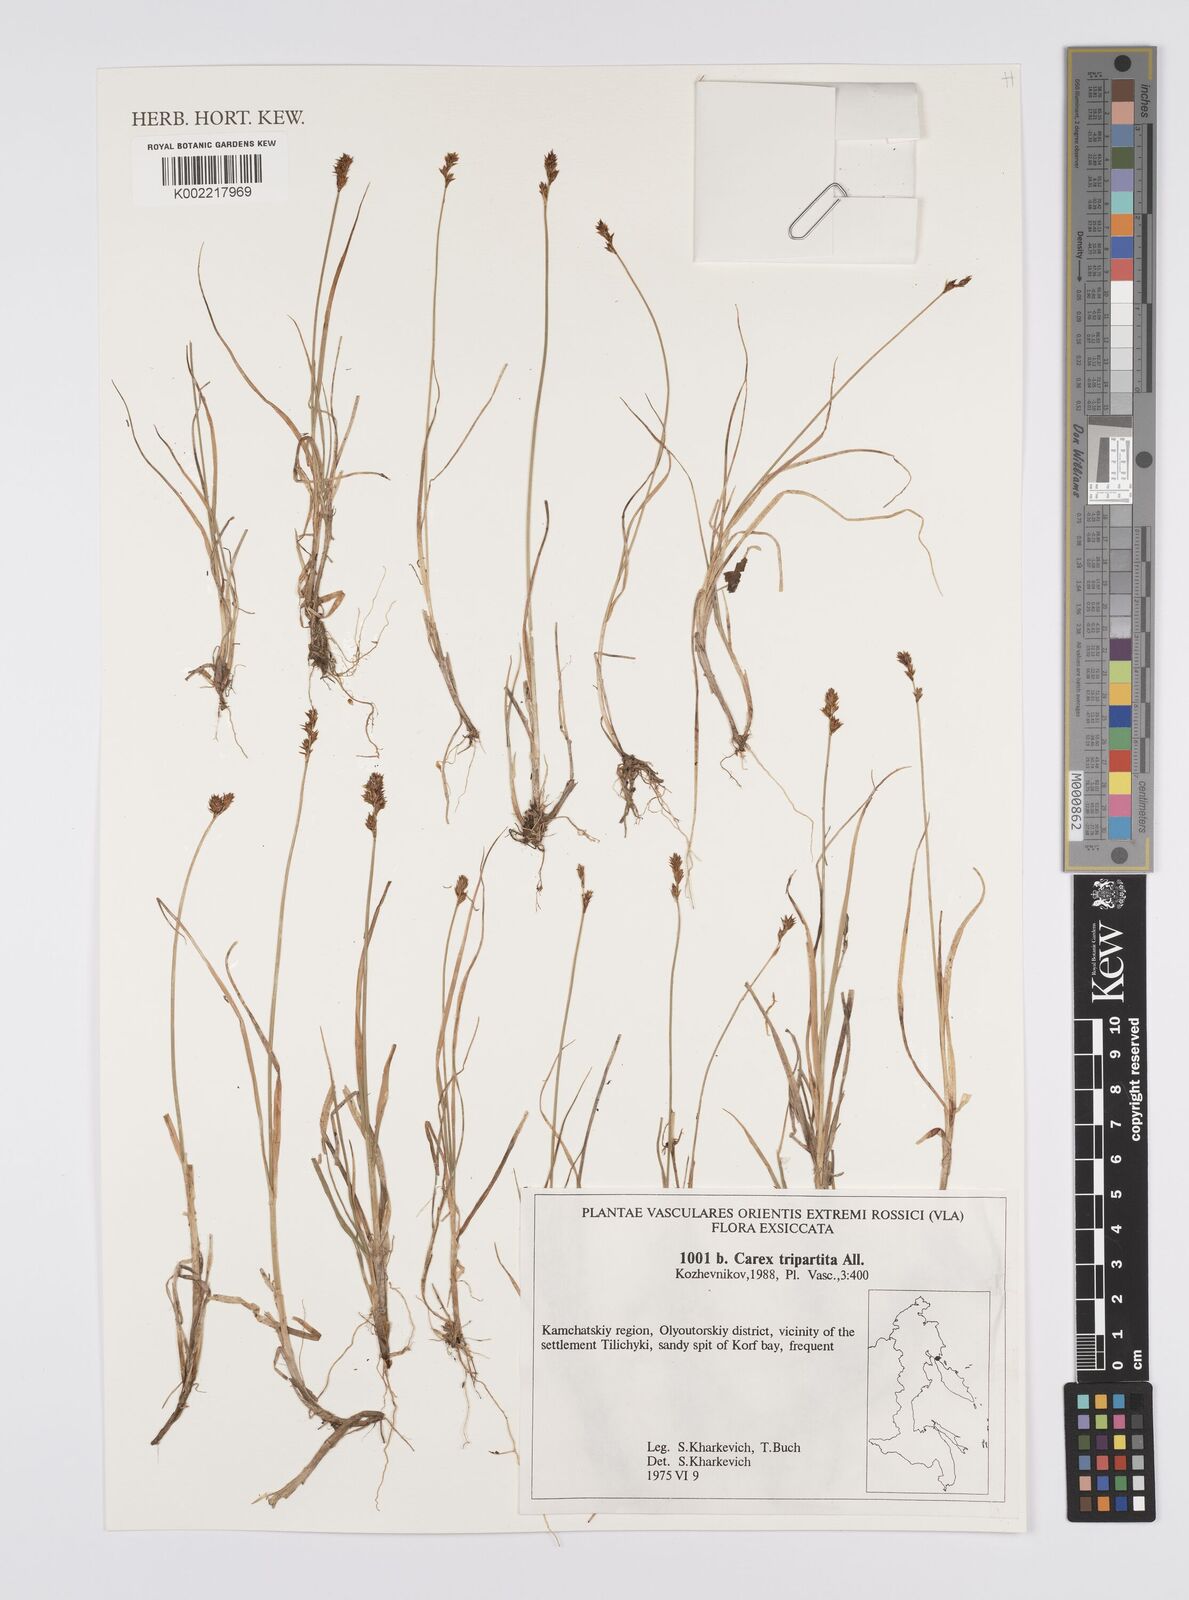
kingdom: Plantae
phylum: Tracheophyta
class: Liliopsida
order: Poales
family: Cyperaceae
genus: Carex
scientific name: Carex curvula
